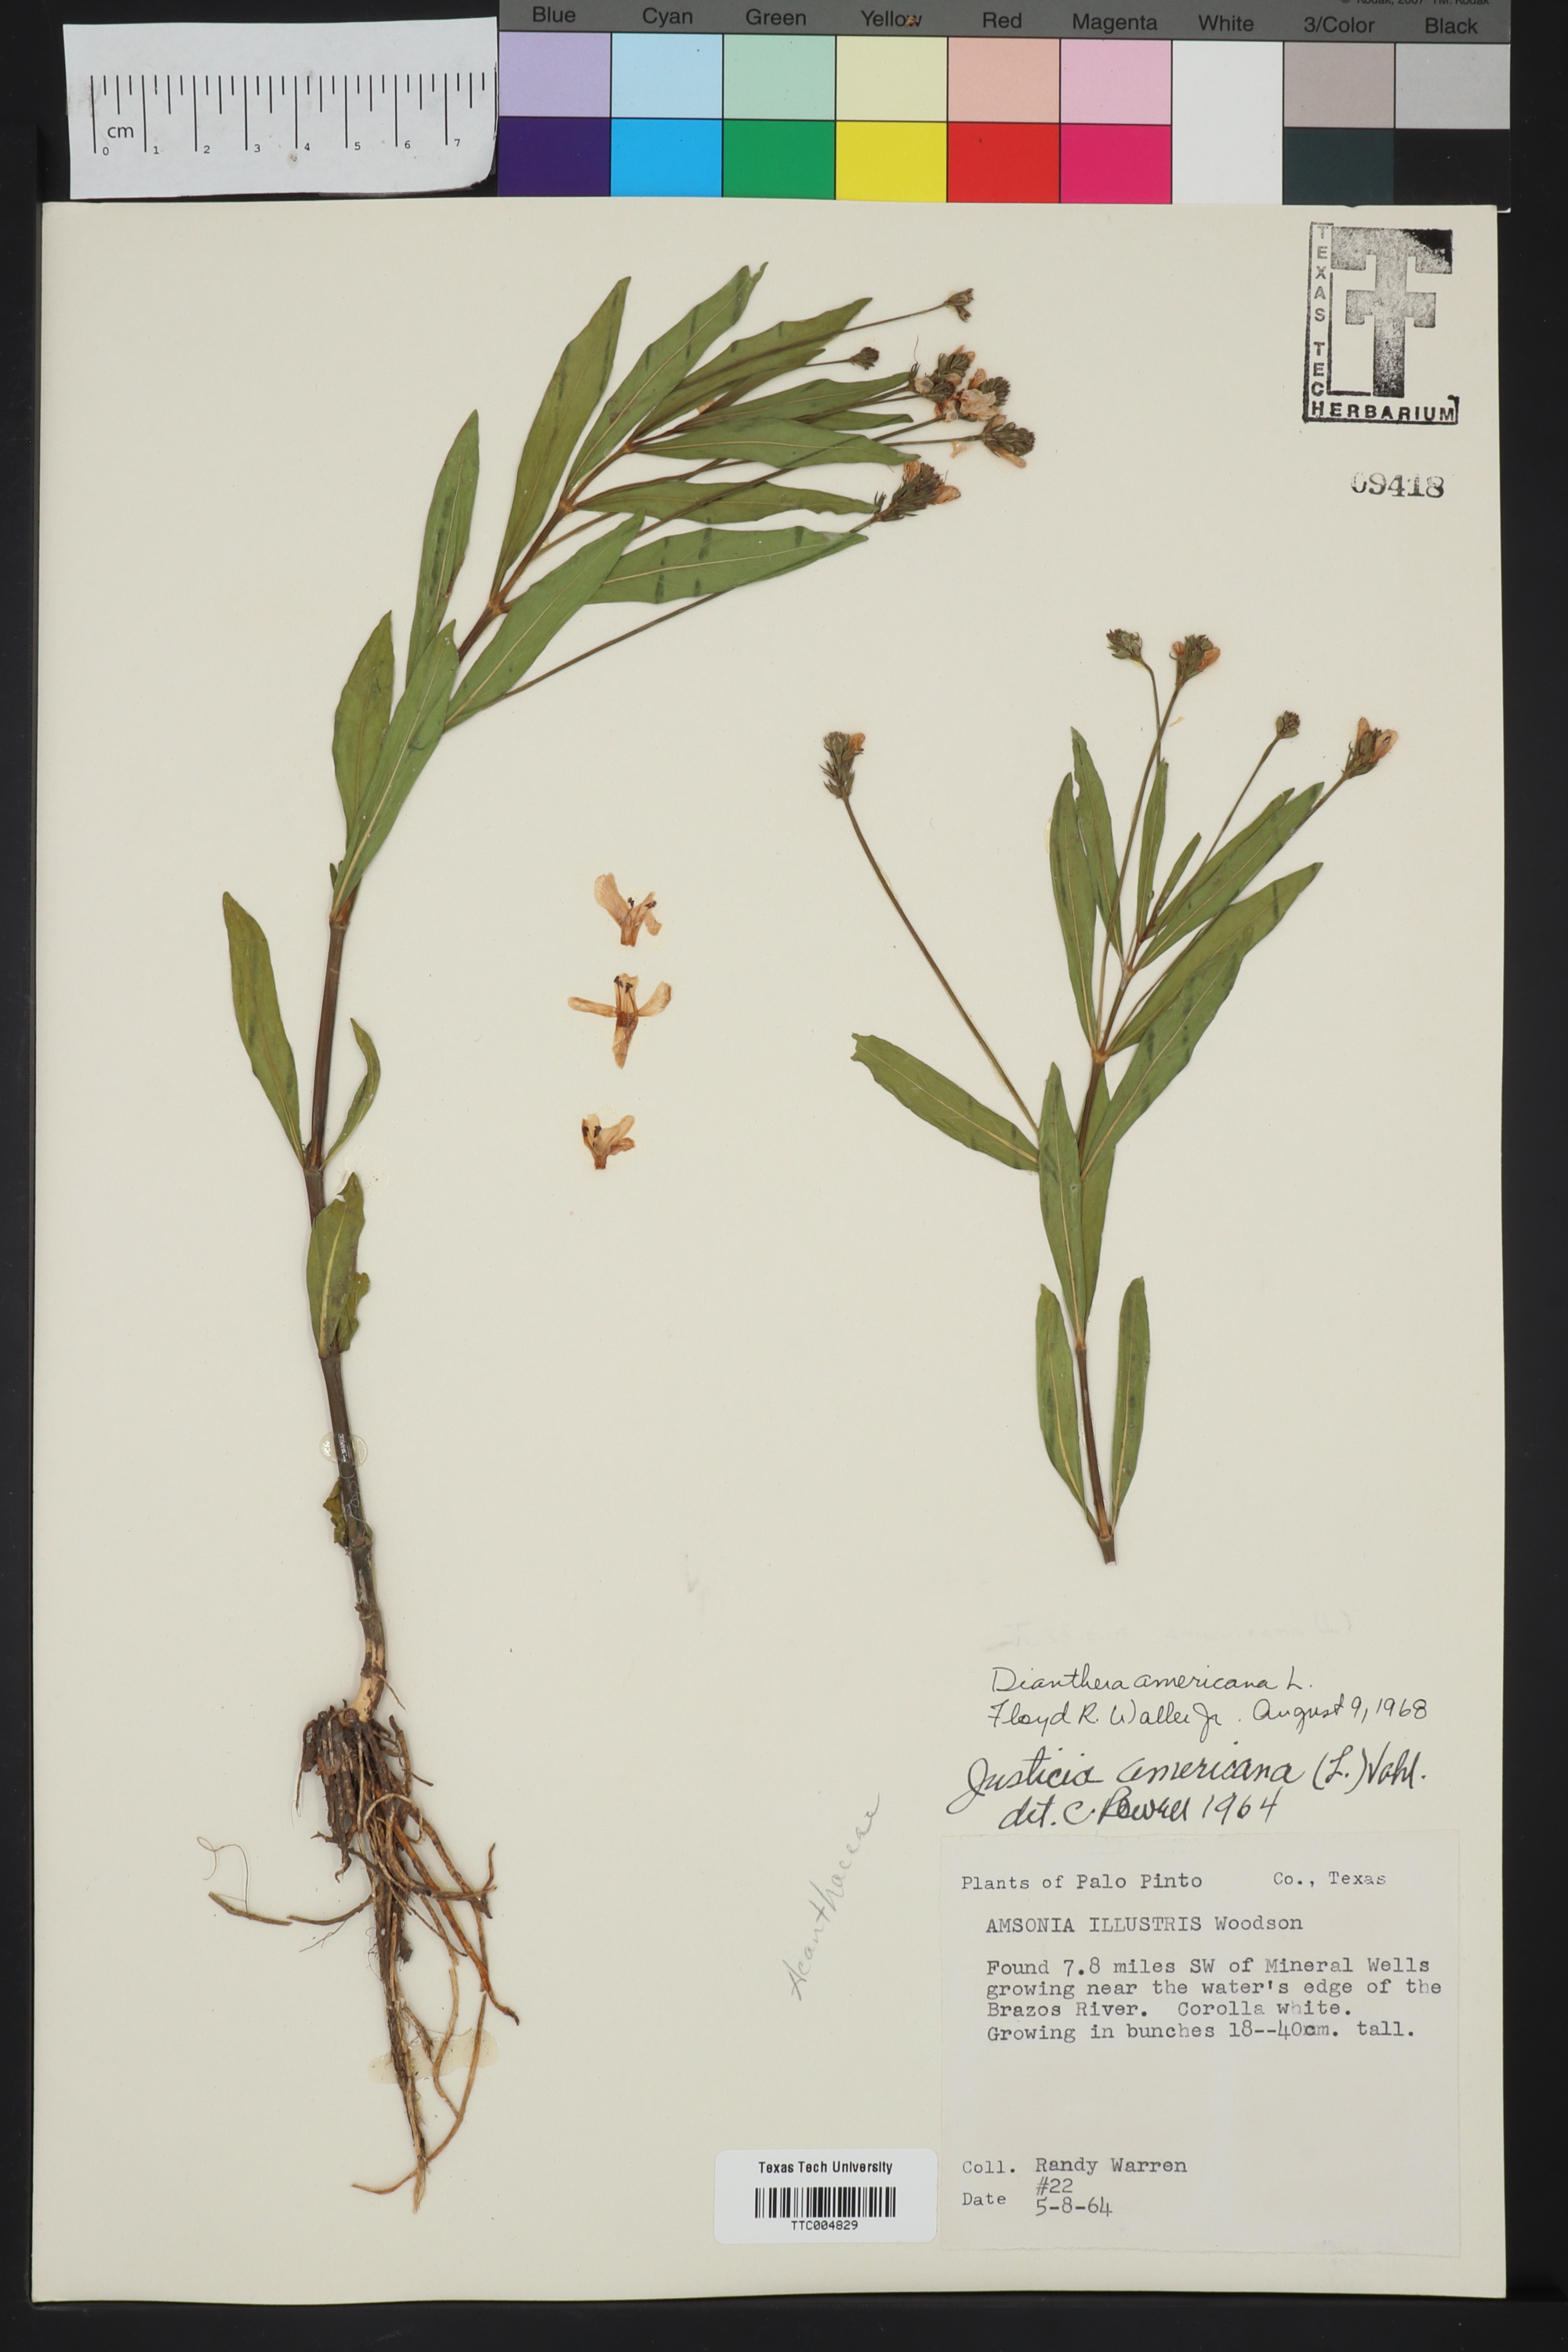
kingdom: Plantae
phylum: Tracheophyta
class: Magnoliopsida
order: Lamiales
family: Acanthaceae
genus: Rostellularia
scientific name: Rostellularia procumbens
